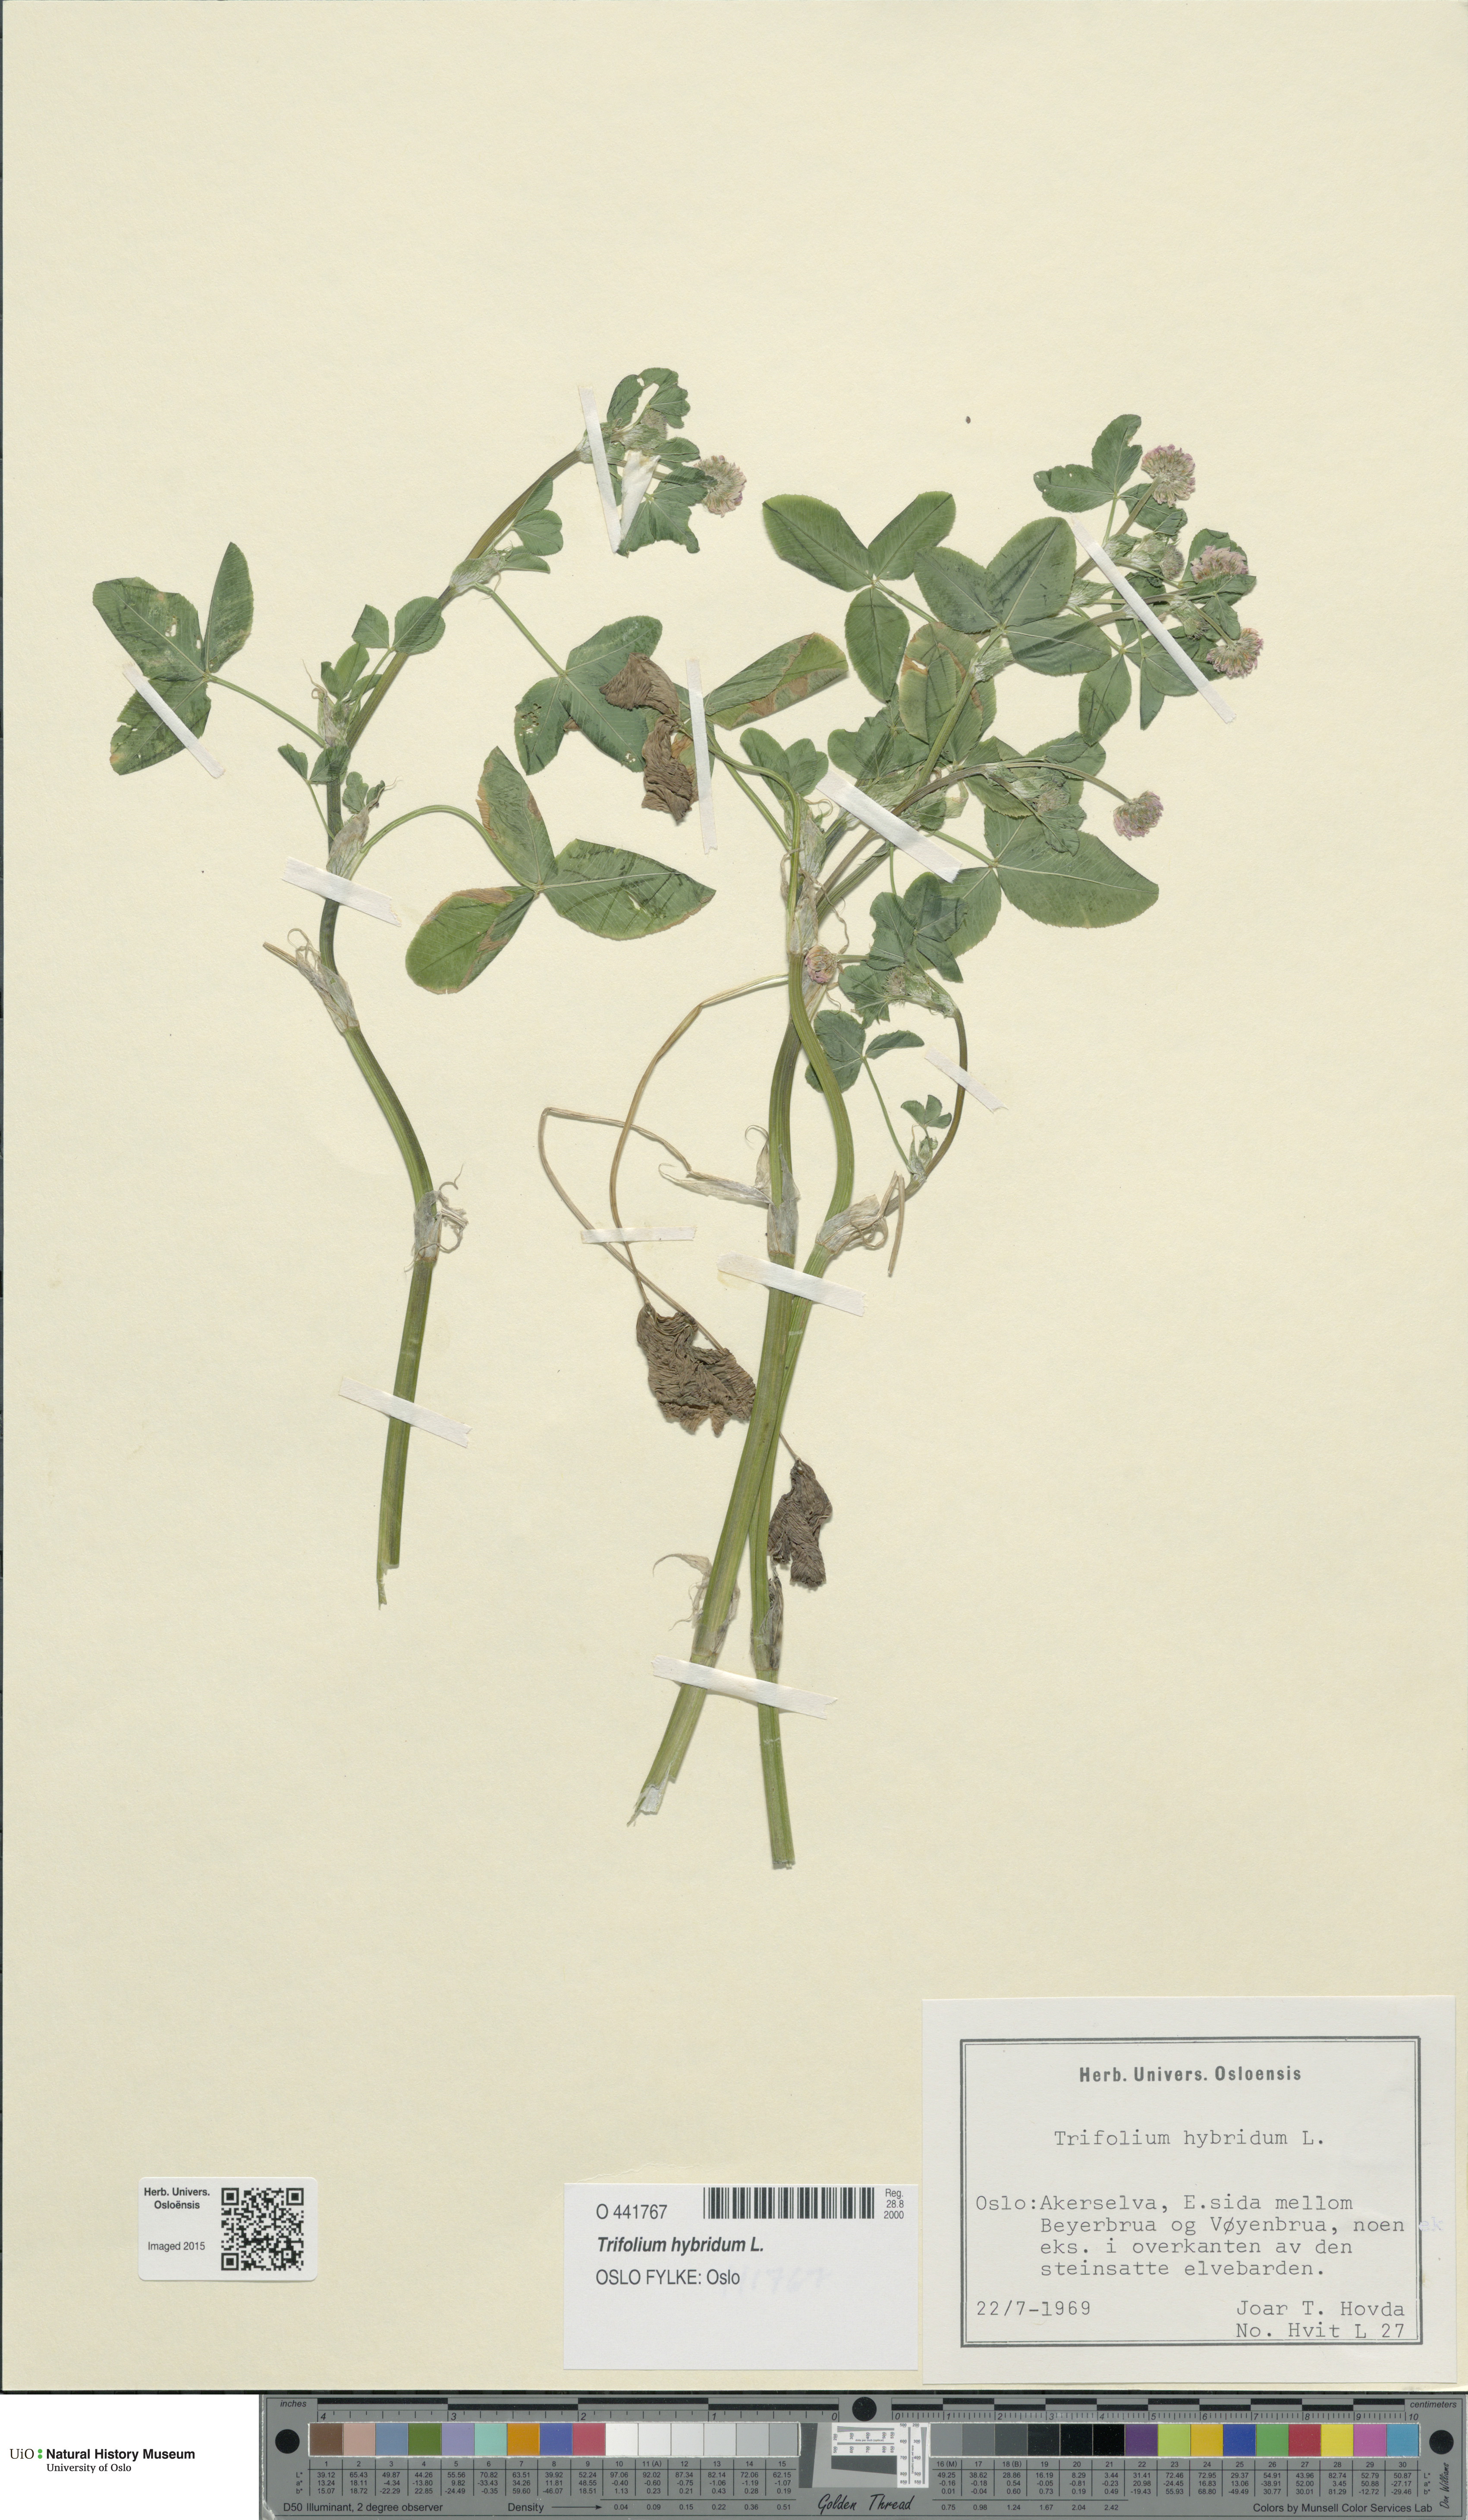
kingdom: Plantae
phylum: Tracheophyta
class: Magnoliopsida
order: Fabales
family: Fabaceae
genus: Trifolium
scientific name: Trifolium hybridum
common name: Alsike clover
